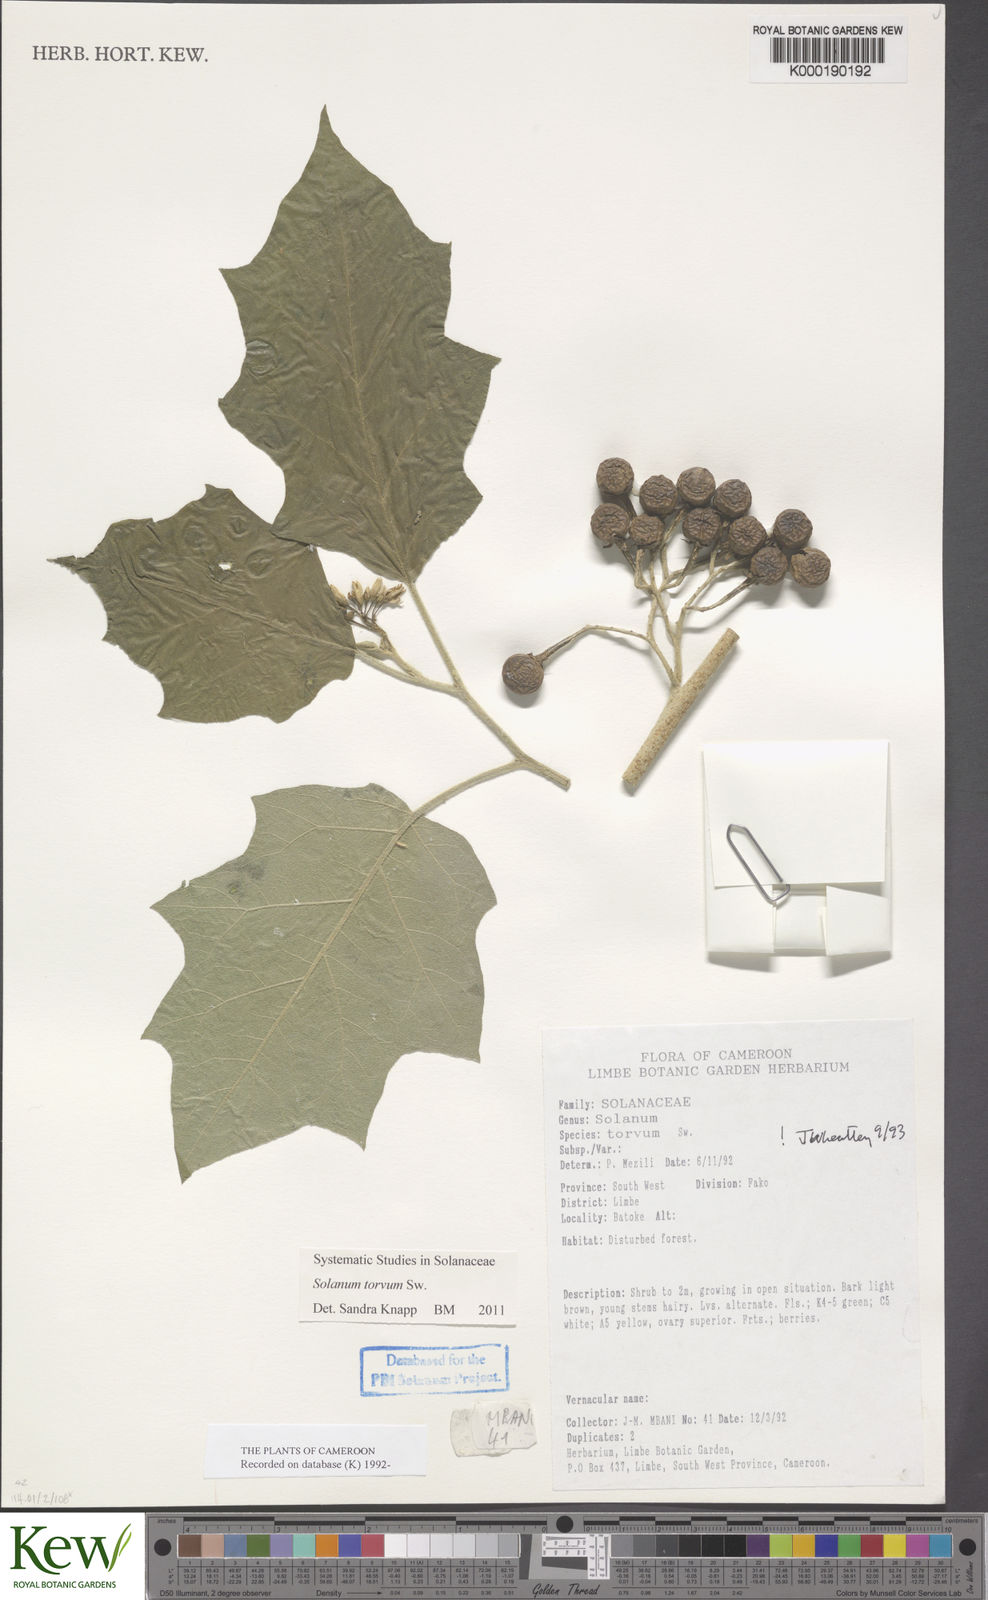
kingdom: Plantae
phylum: Tracheophyta
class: Magnoliopsida
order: Solanales
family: Solanaceae
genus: Solanum
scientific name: Solanum torvum
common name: Turkey berry
